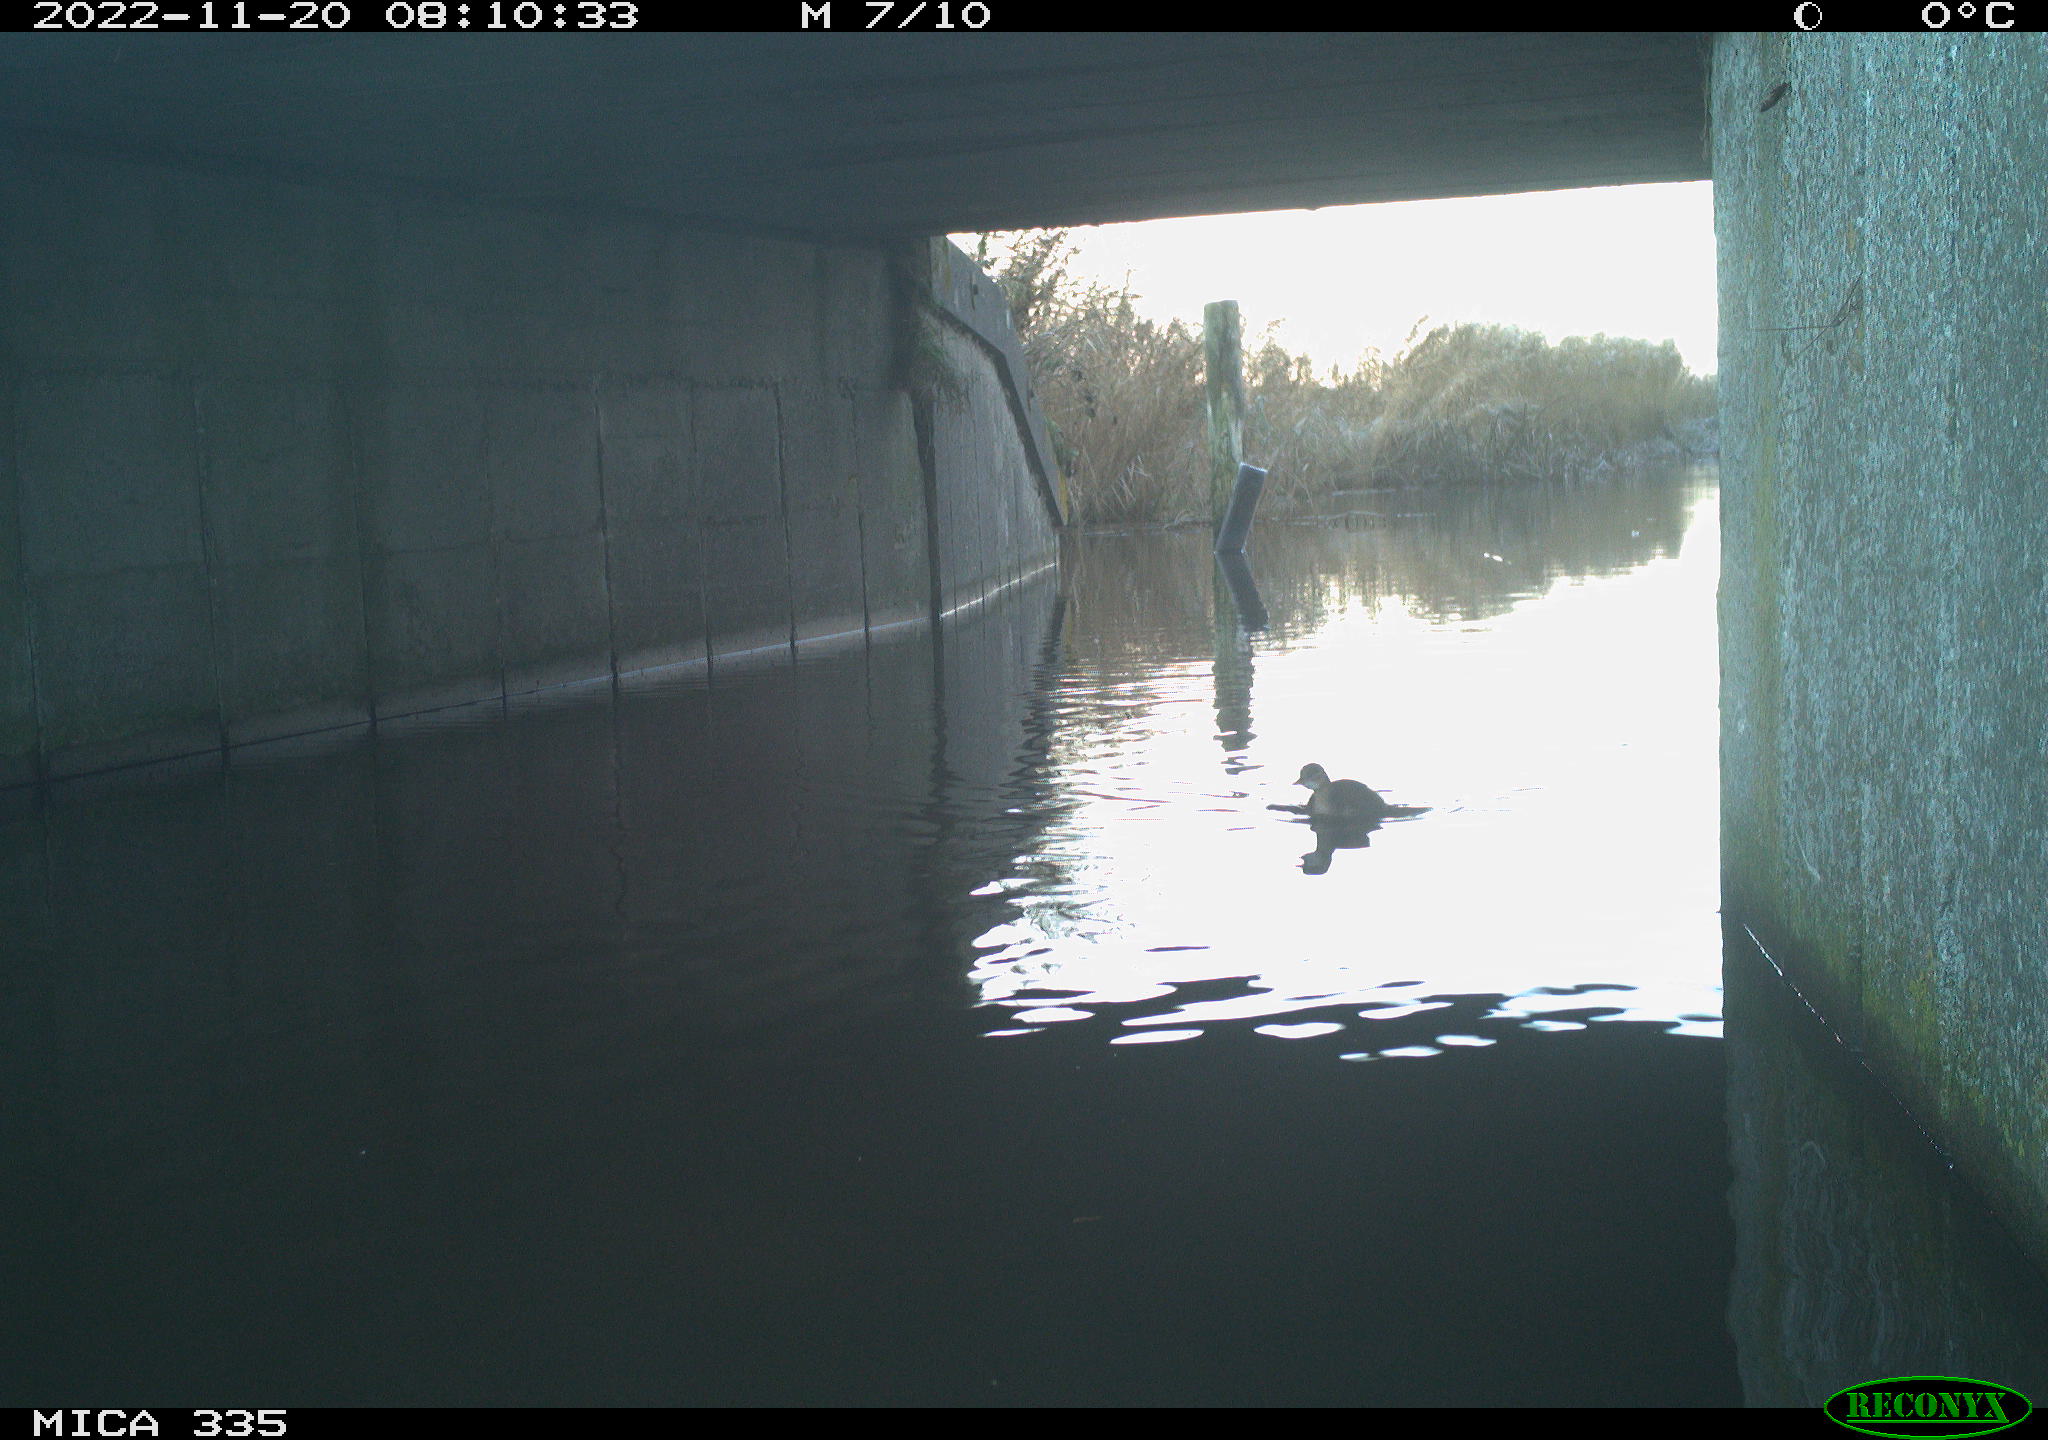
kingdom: Animalia
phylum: Chordata
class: Aves
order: Gruiformes
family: Rallidae
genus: Fulica
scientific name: Fulica atra
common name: Eurasian coot
